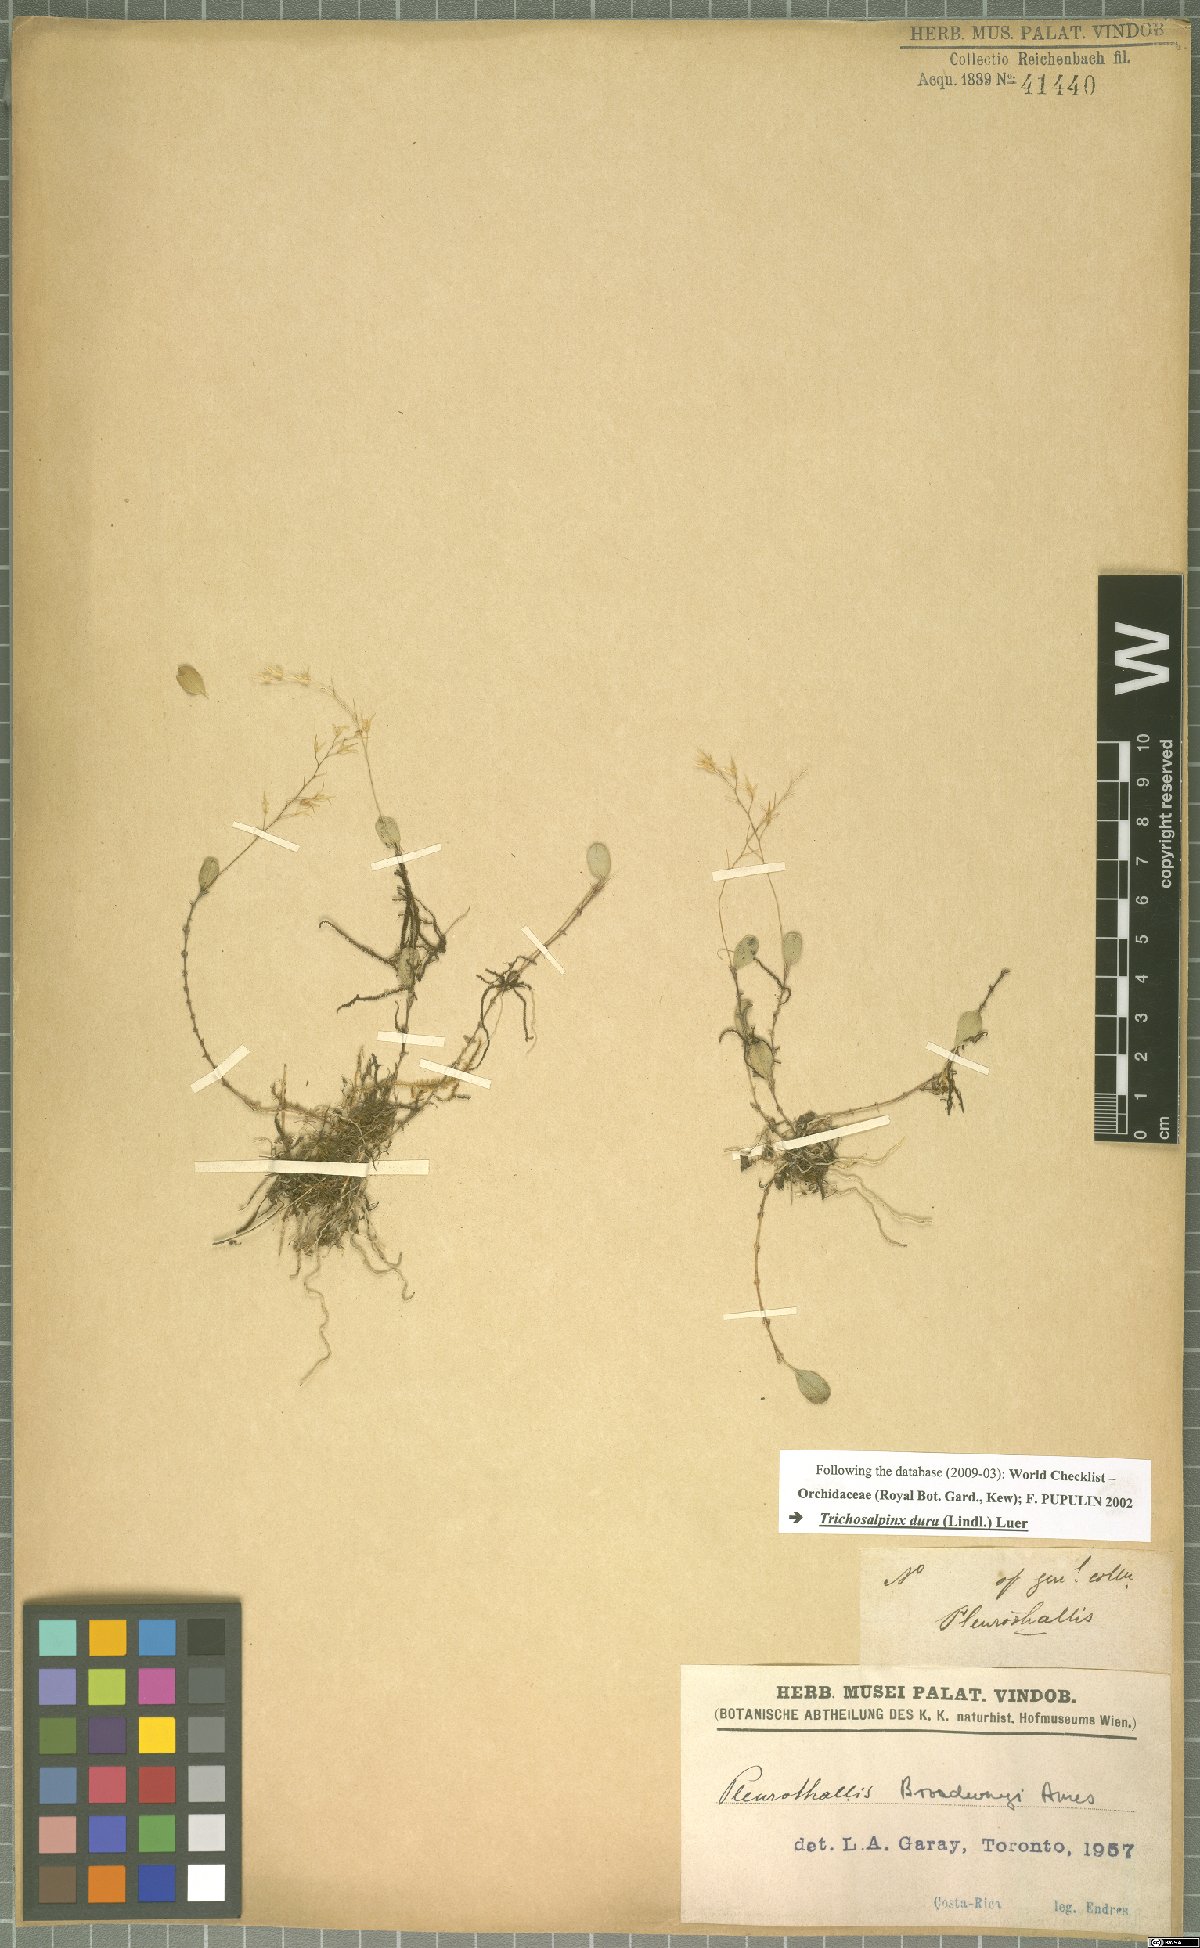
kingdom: Plantae
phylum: Tracheophyta
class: Liliopsida
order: Asparagales
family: Orchidaceae
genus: Trichosalpinx
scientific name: Trichosalpinx dura
